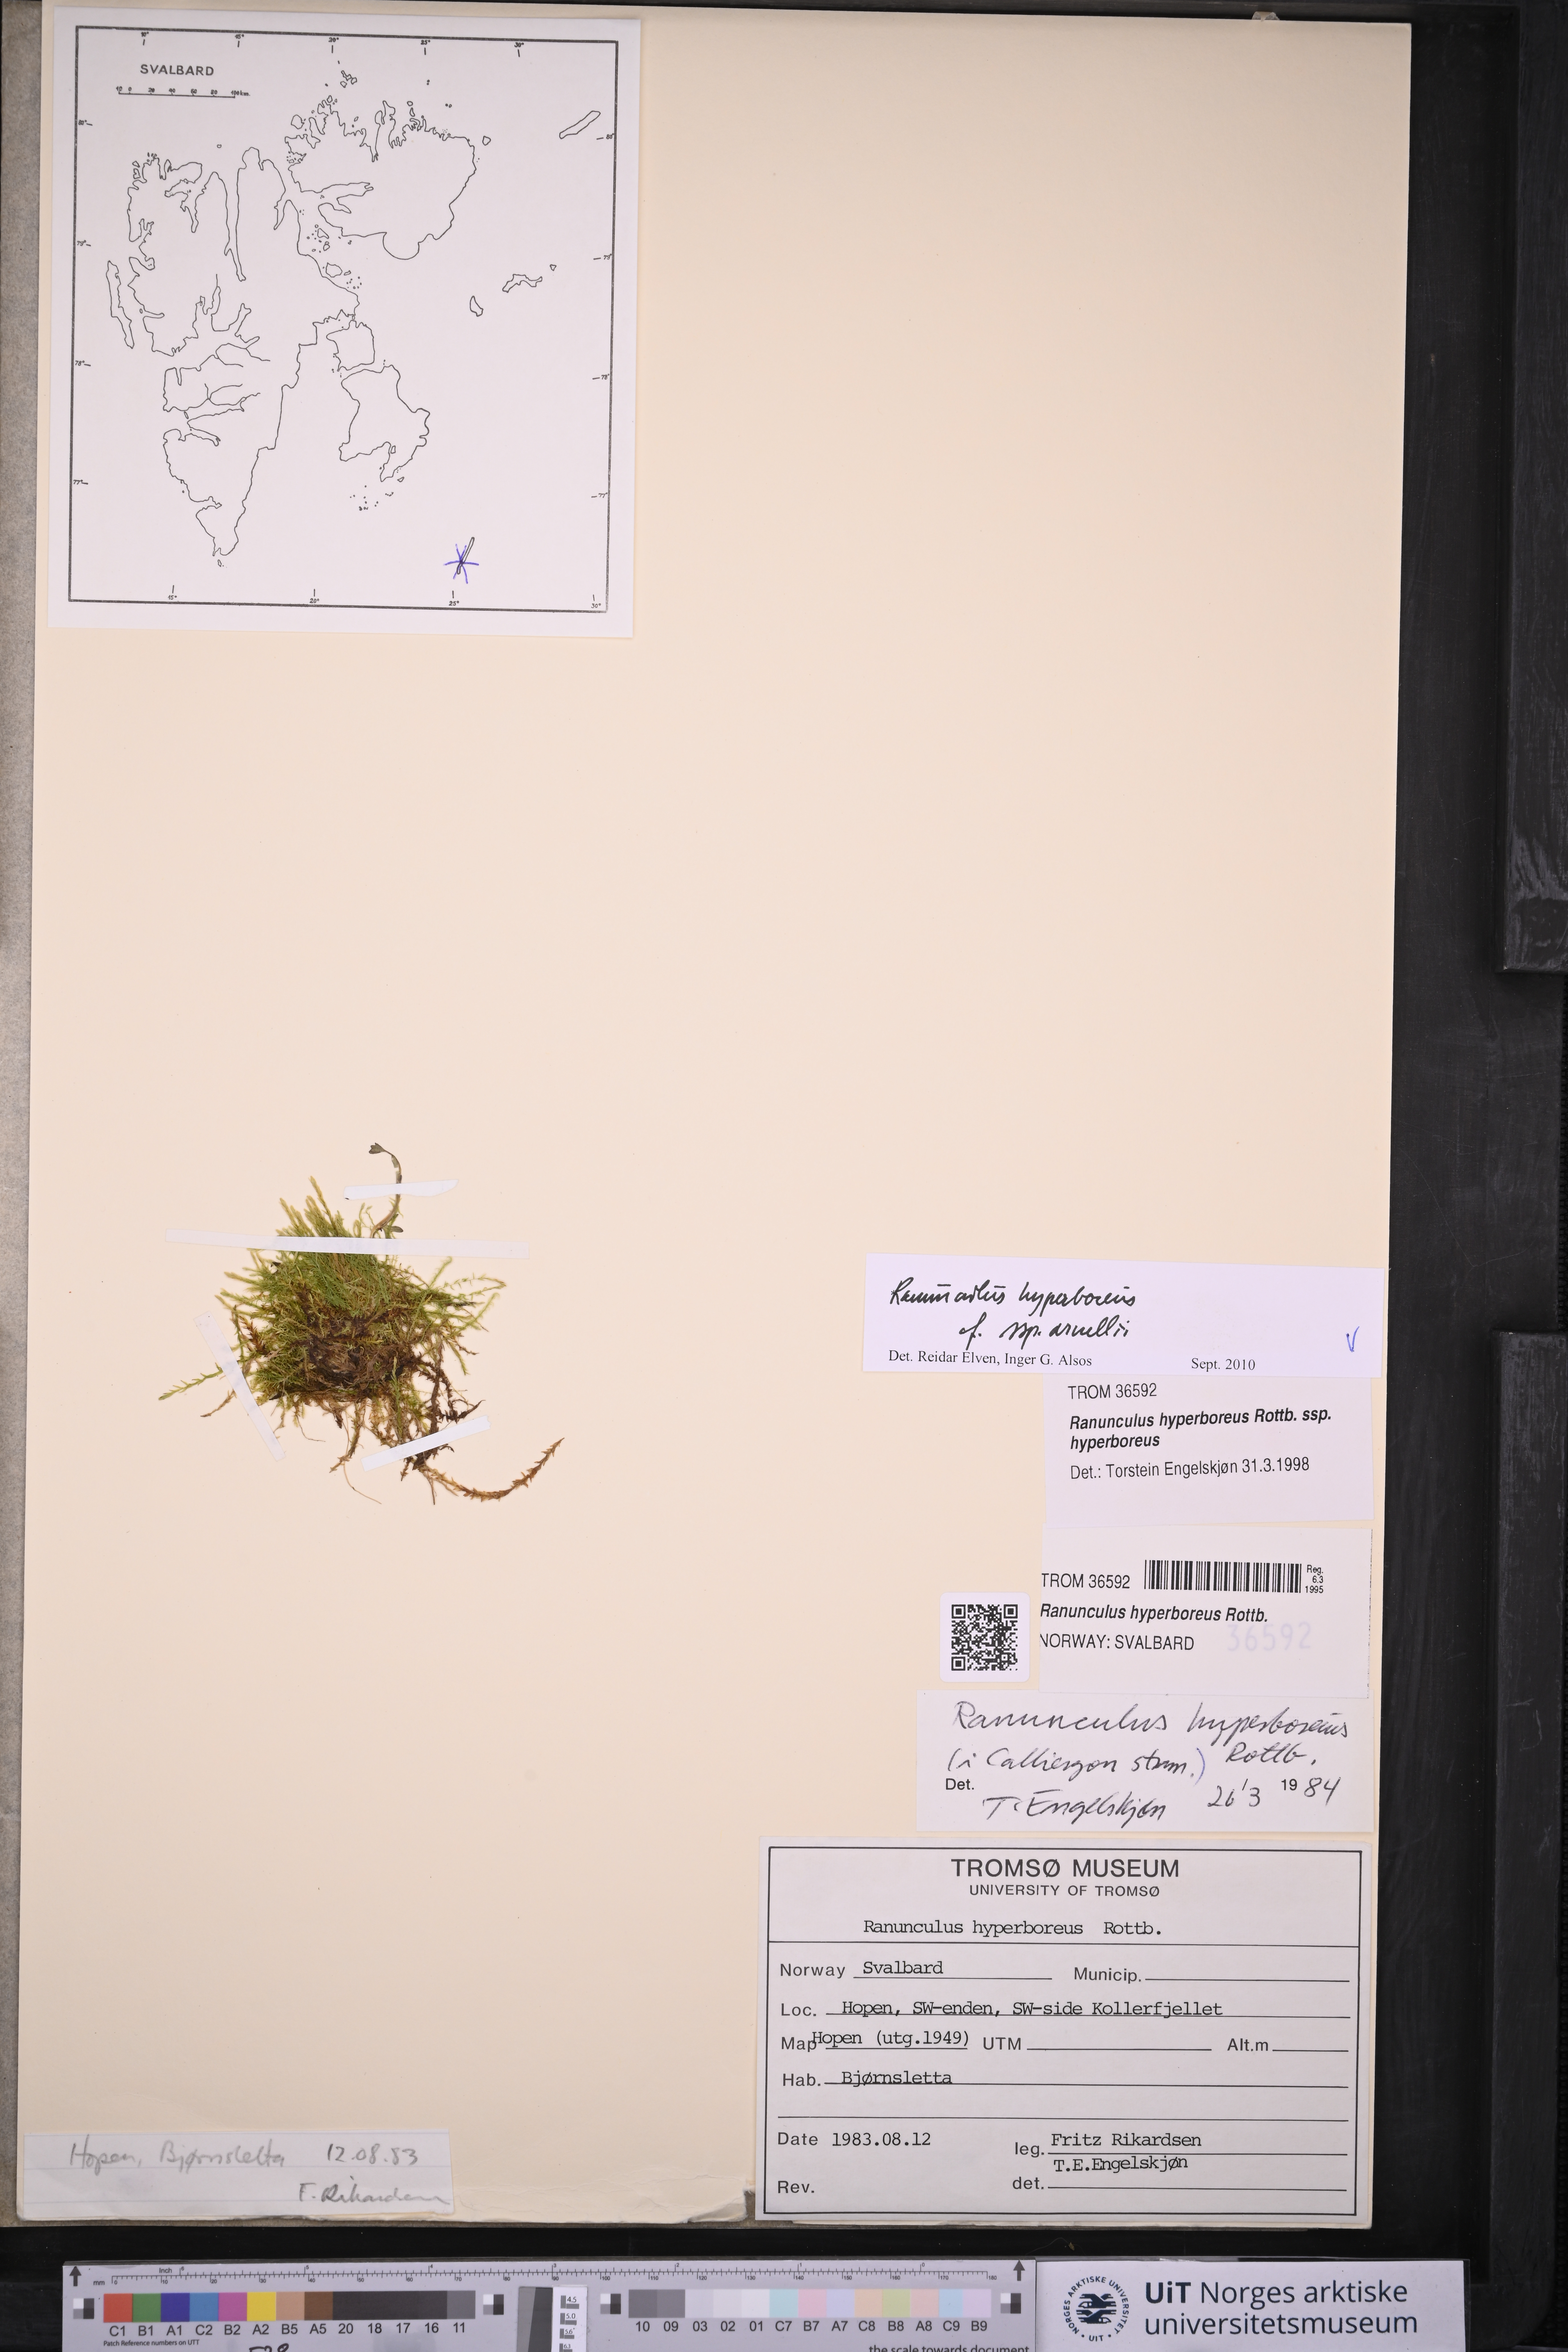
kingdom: Plantae
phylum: Tracheophyta
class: Magnoliopsida
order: Ranunculales
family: Ranunculaceae
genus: Ranunculus
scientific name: Ranunculus hyperboreus
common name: Arctic buttercup
